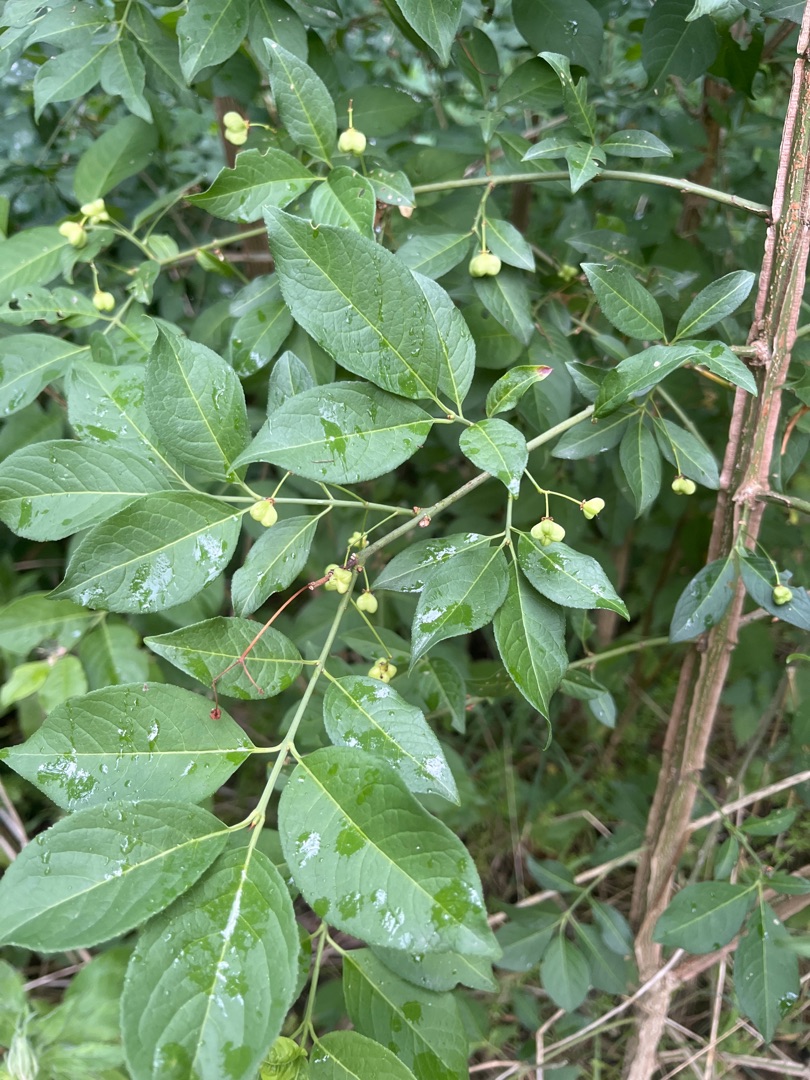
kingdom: Plantae
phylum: Tracheophyta
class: Magnoliopsida
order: Celastrales
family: Celastraceae
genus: Euonymus
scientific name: Euonymus europaeus
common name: Benved
